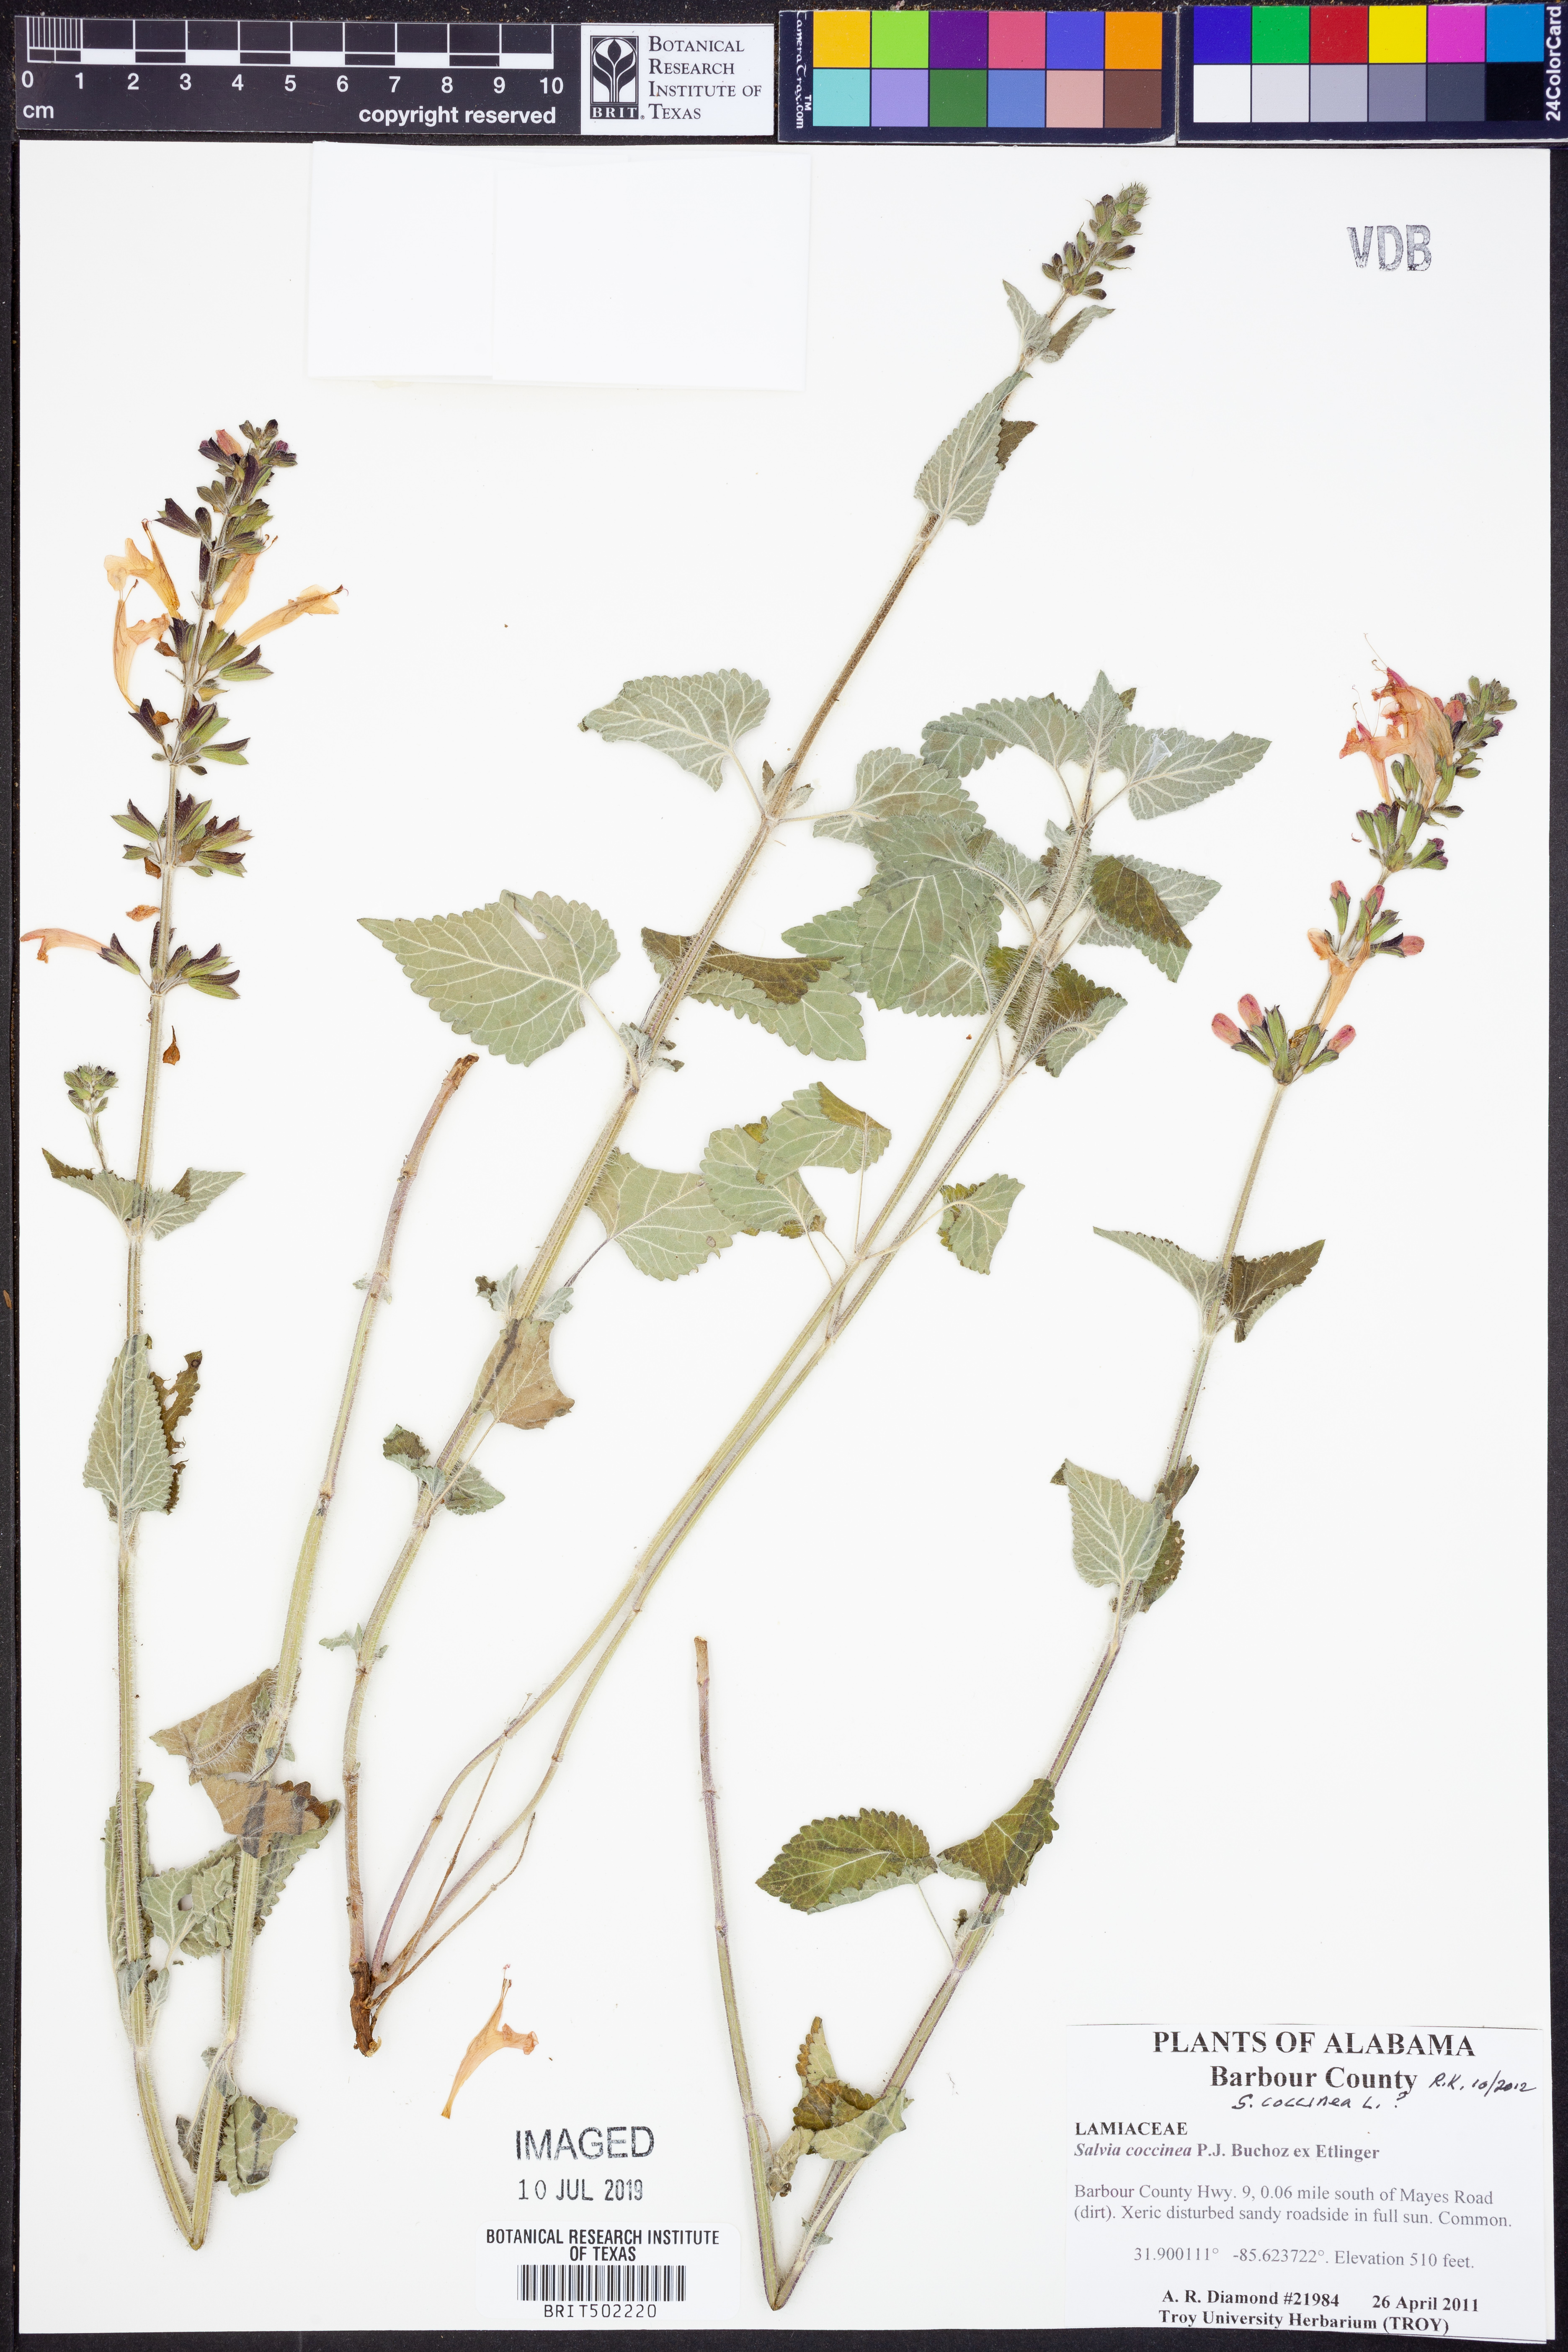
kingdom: Plantae
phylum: Tracheophyta
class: Magnoliopsida
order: Lamiales
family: Lamiaceae
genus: Salvia
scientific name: Salvia coccinea
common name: Blood sage
